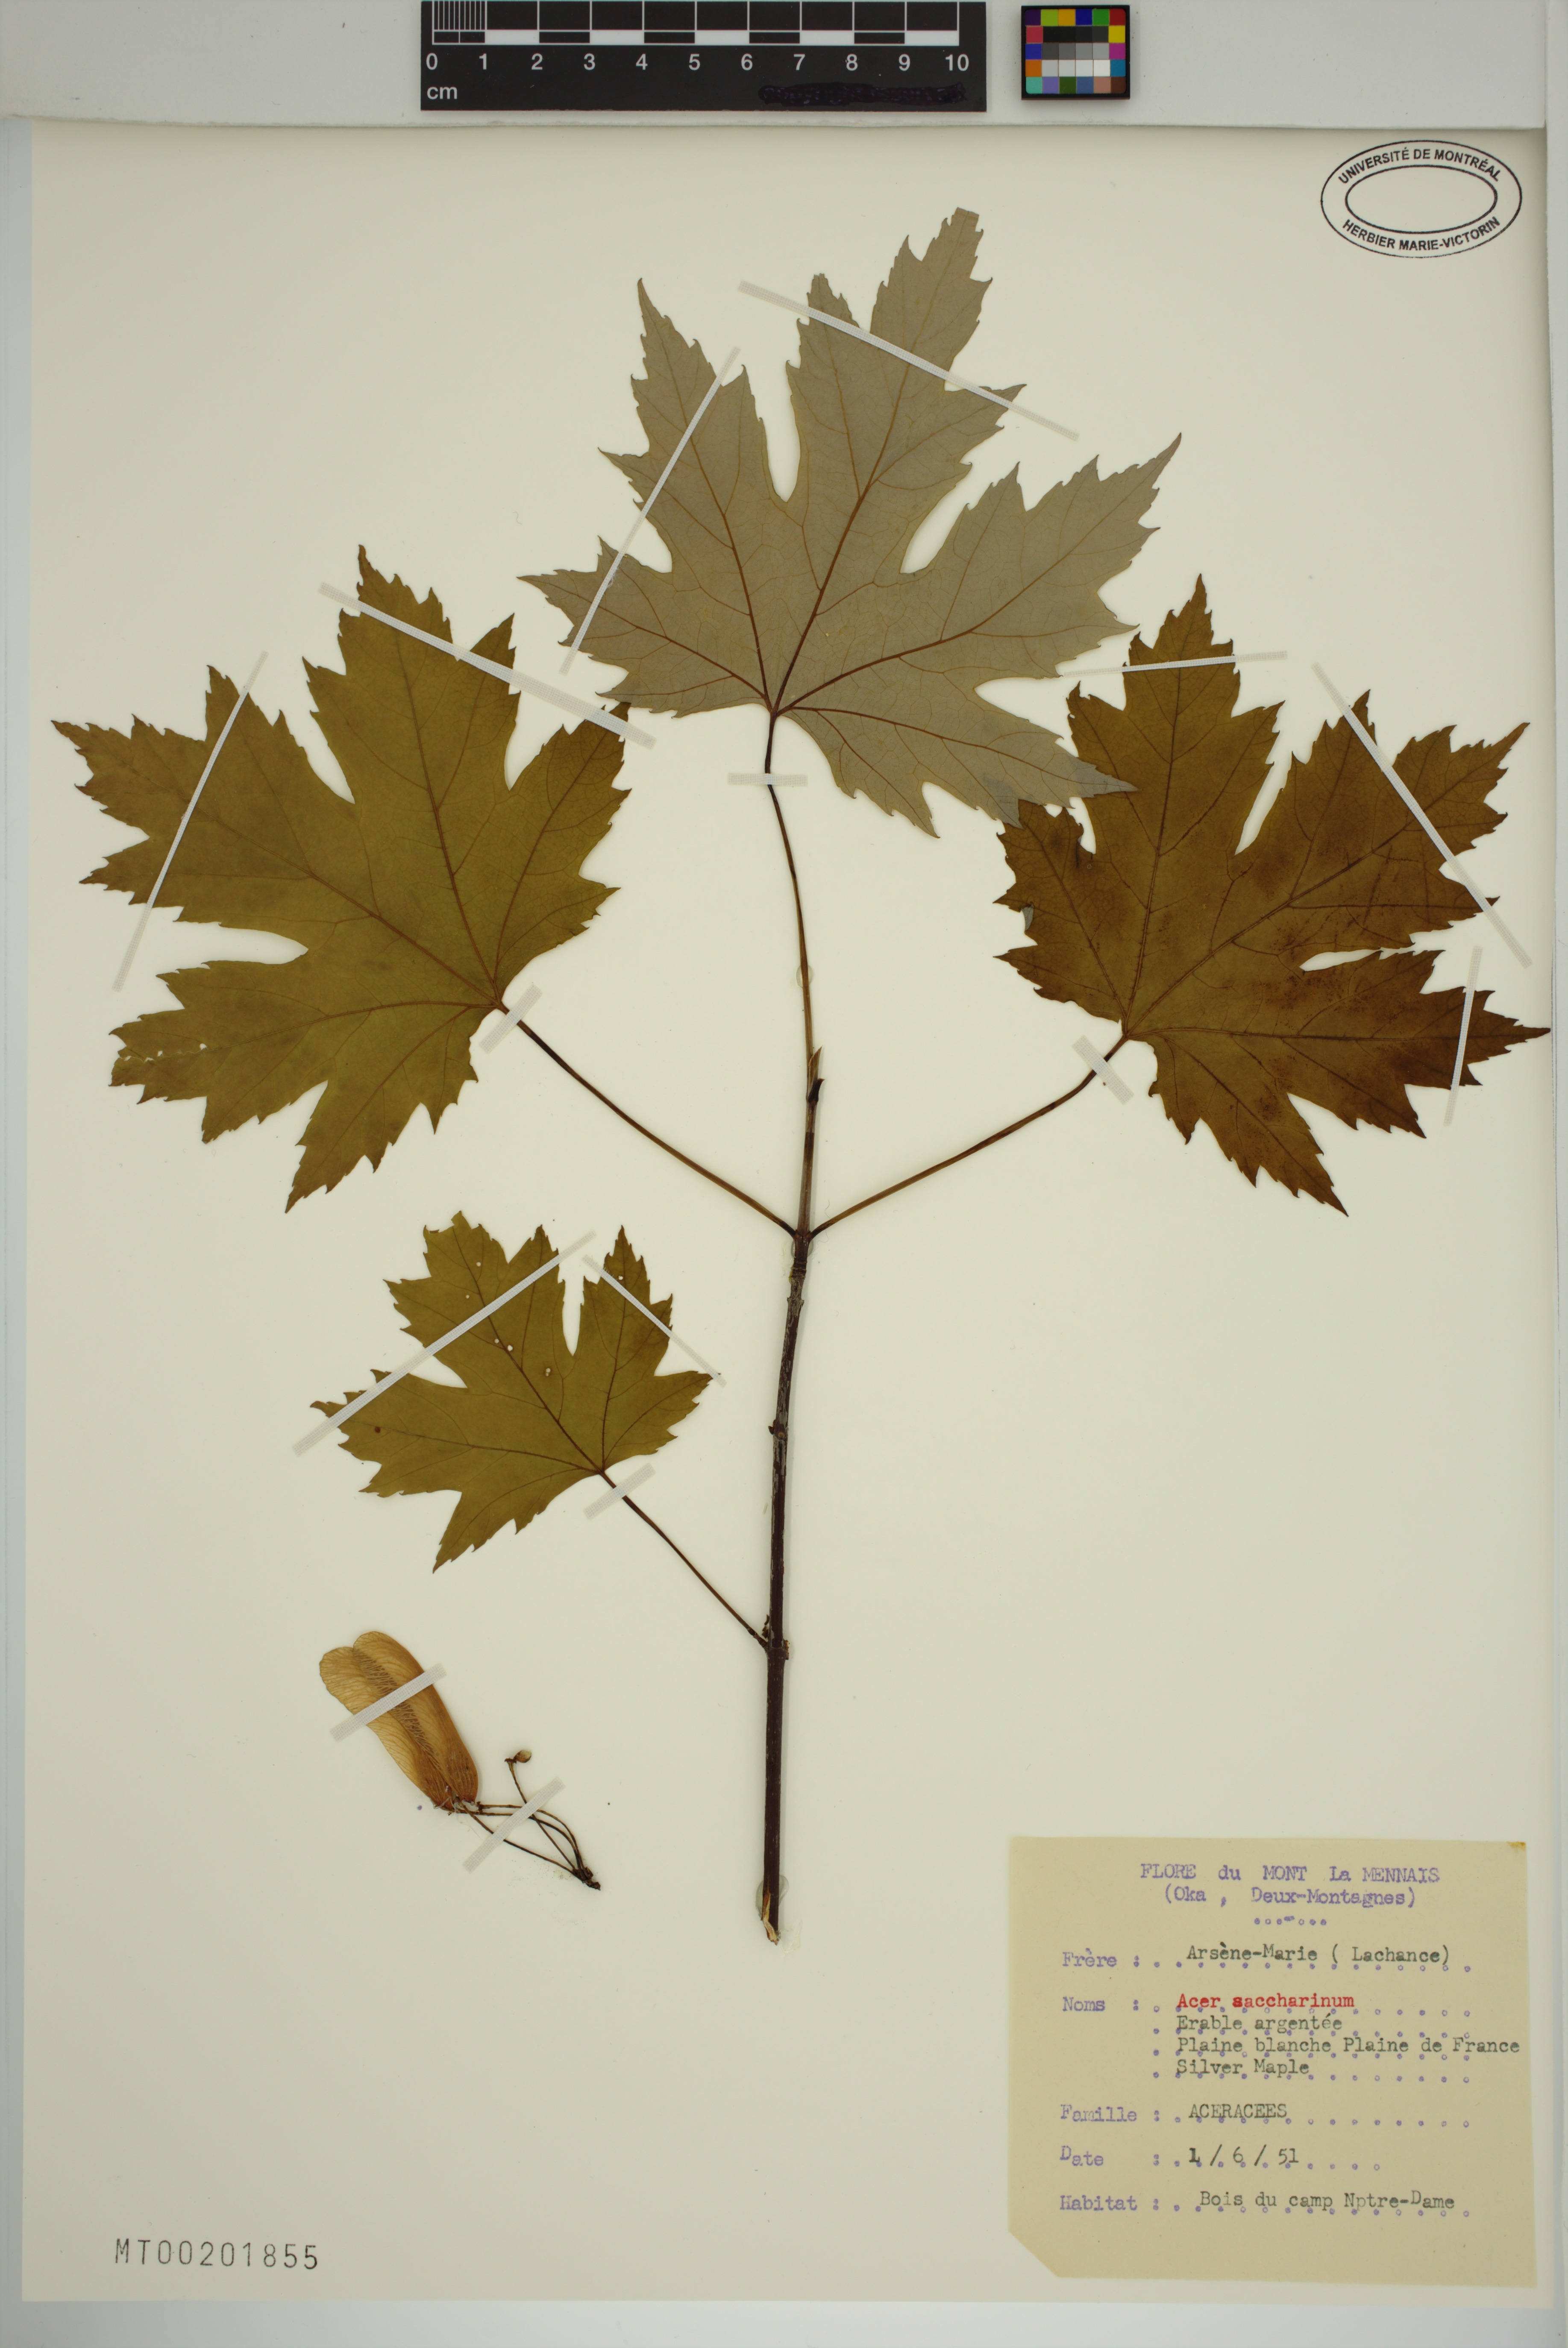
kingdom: Plantae
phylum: Tracheophyta
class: Magnoliopsida
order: Sapindales
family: Sapindaceae
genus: Acer
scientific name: Acer saccharinum
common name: Silver maple
